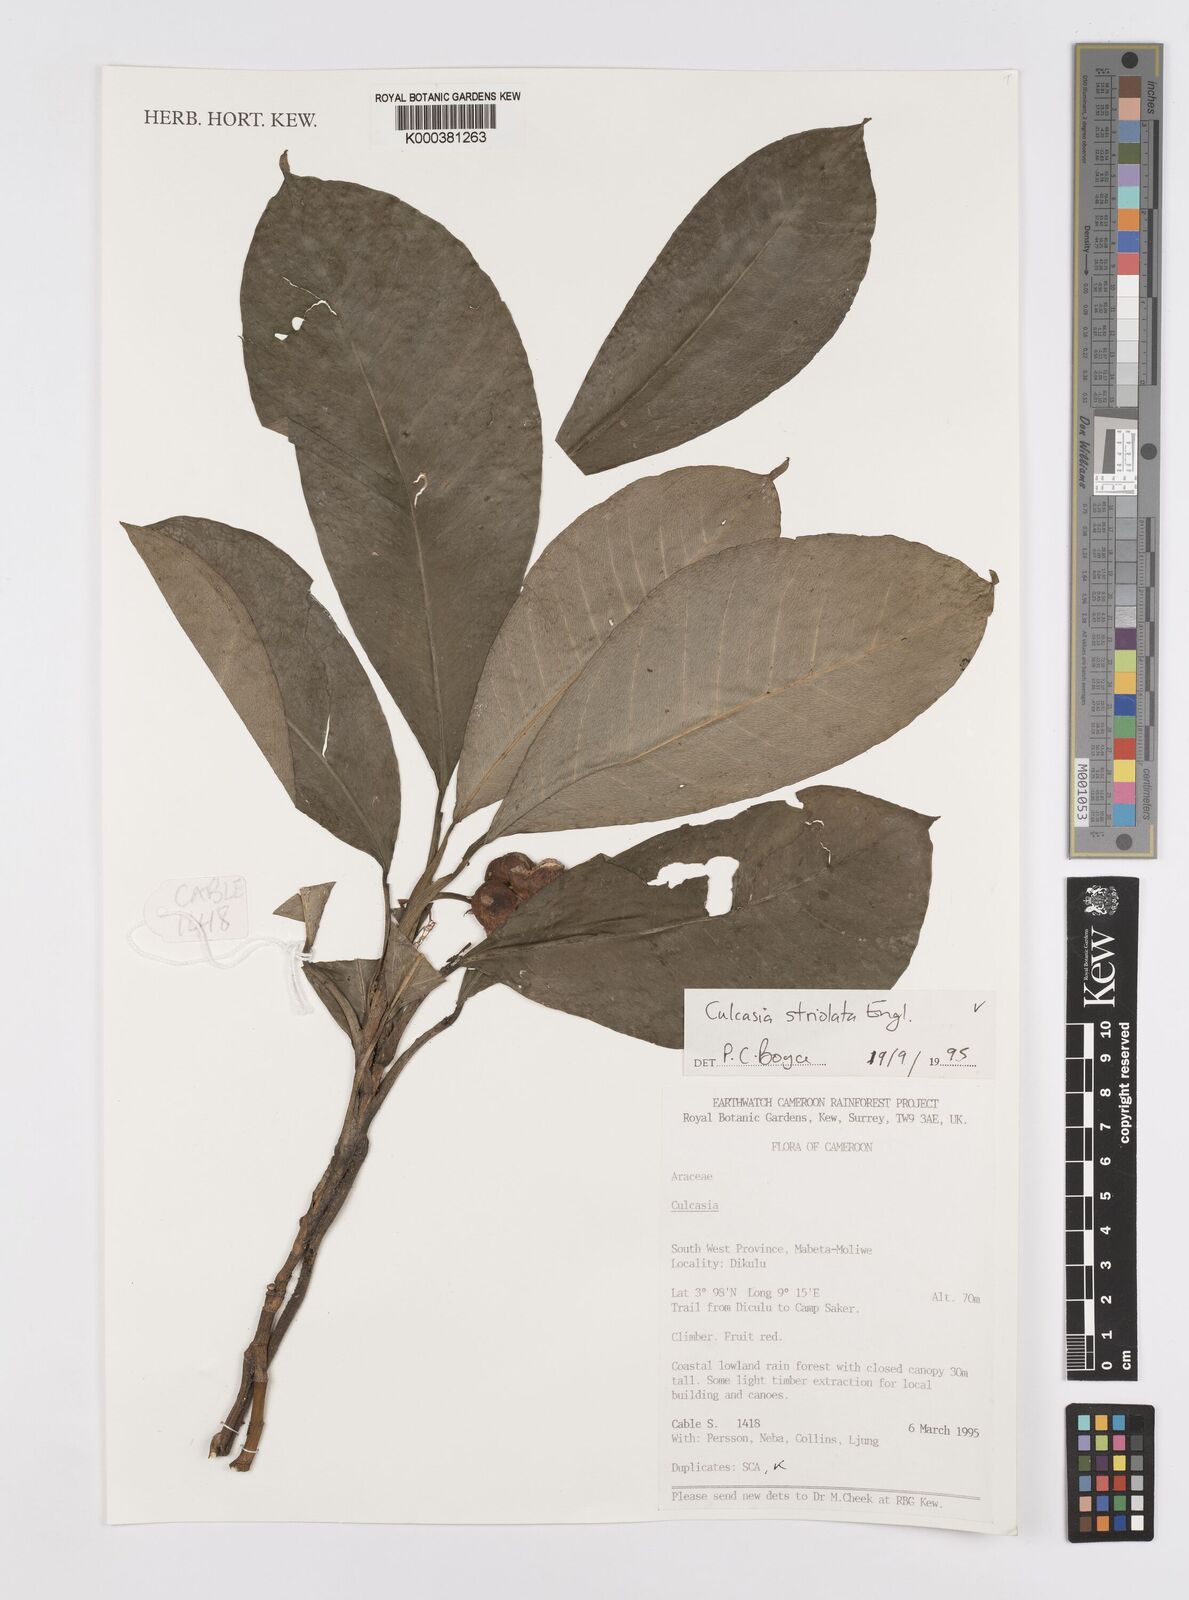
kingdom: Plantae
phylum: Tracheophyta
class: Liliopsida
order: Alismatales
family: Araceae
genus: Culcasia
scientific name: Culcasia striolata
